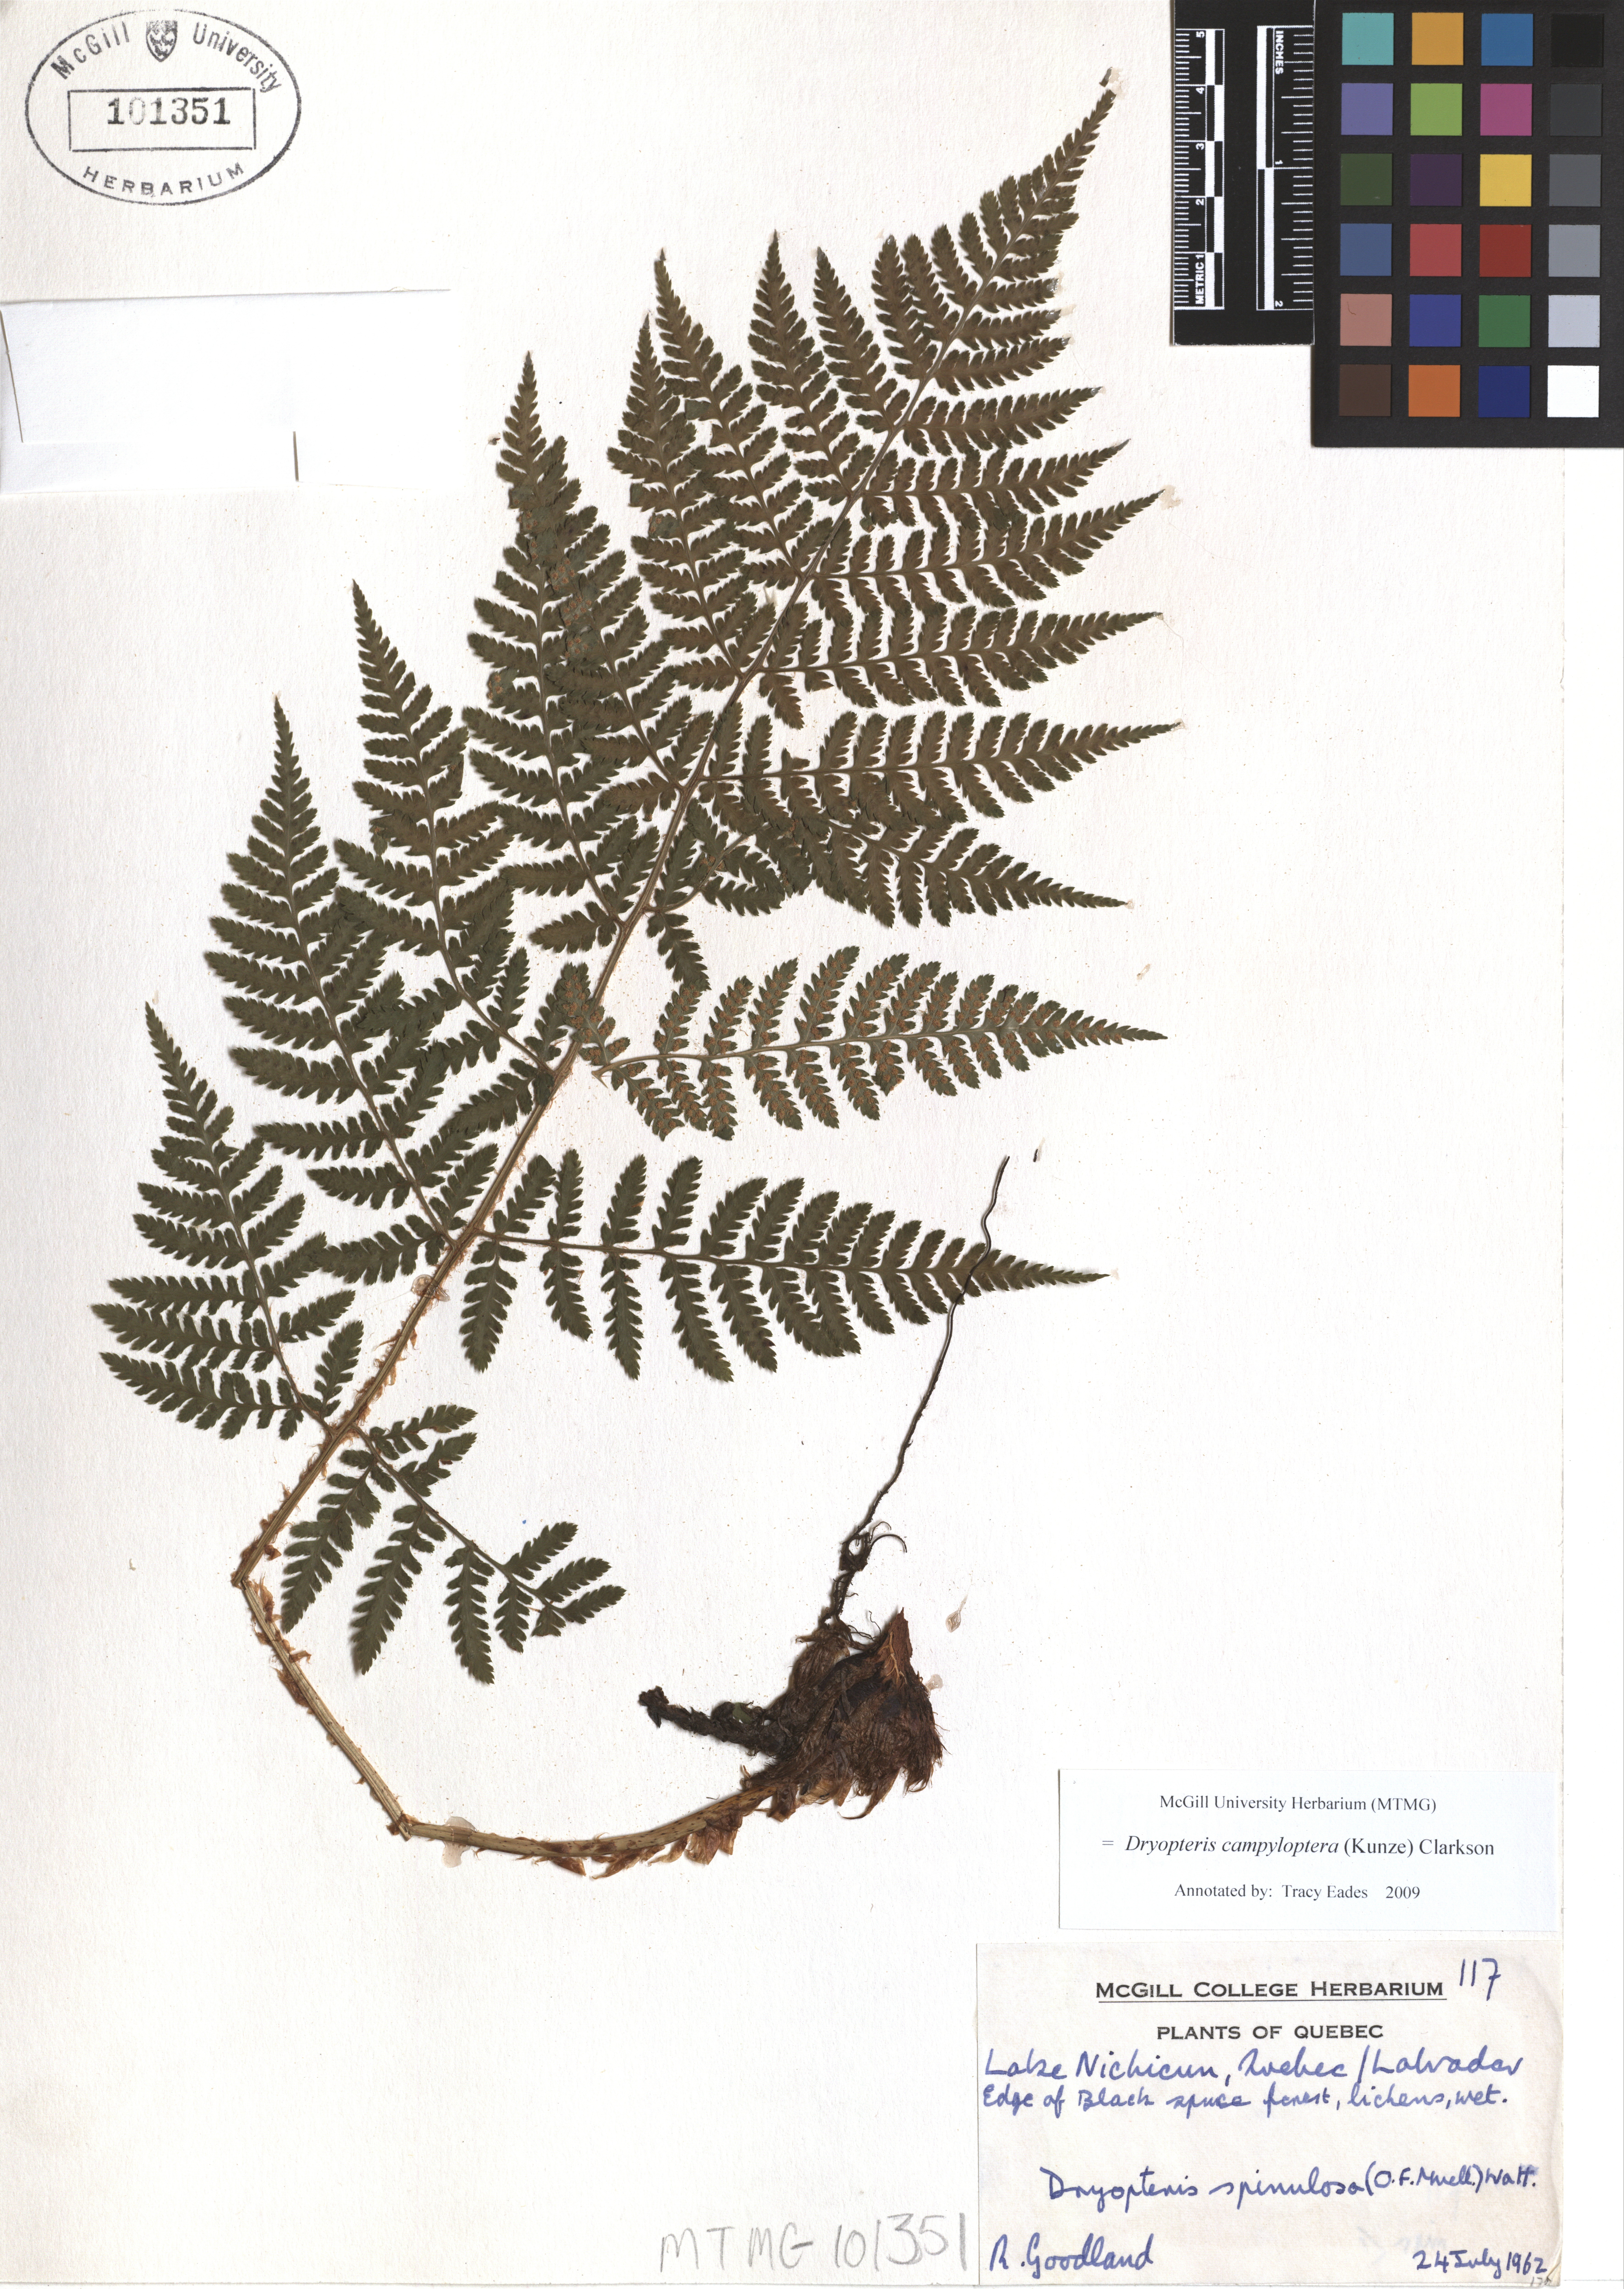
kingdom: Plantae
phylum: Tracheophyta
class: Polypodiopsida
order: Polypodiales
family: Dryopteridaceae
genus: Dryopteris
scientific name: Dryopteris campyloptera
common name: Mountain wood fern
